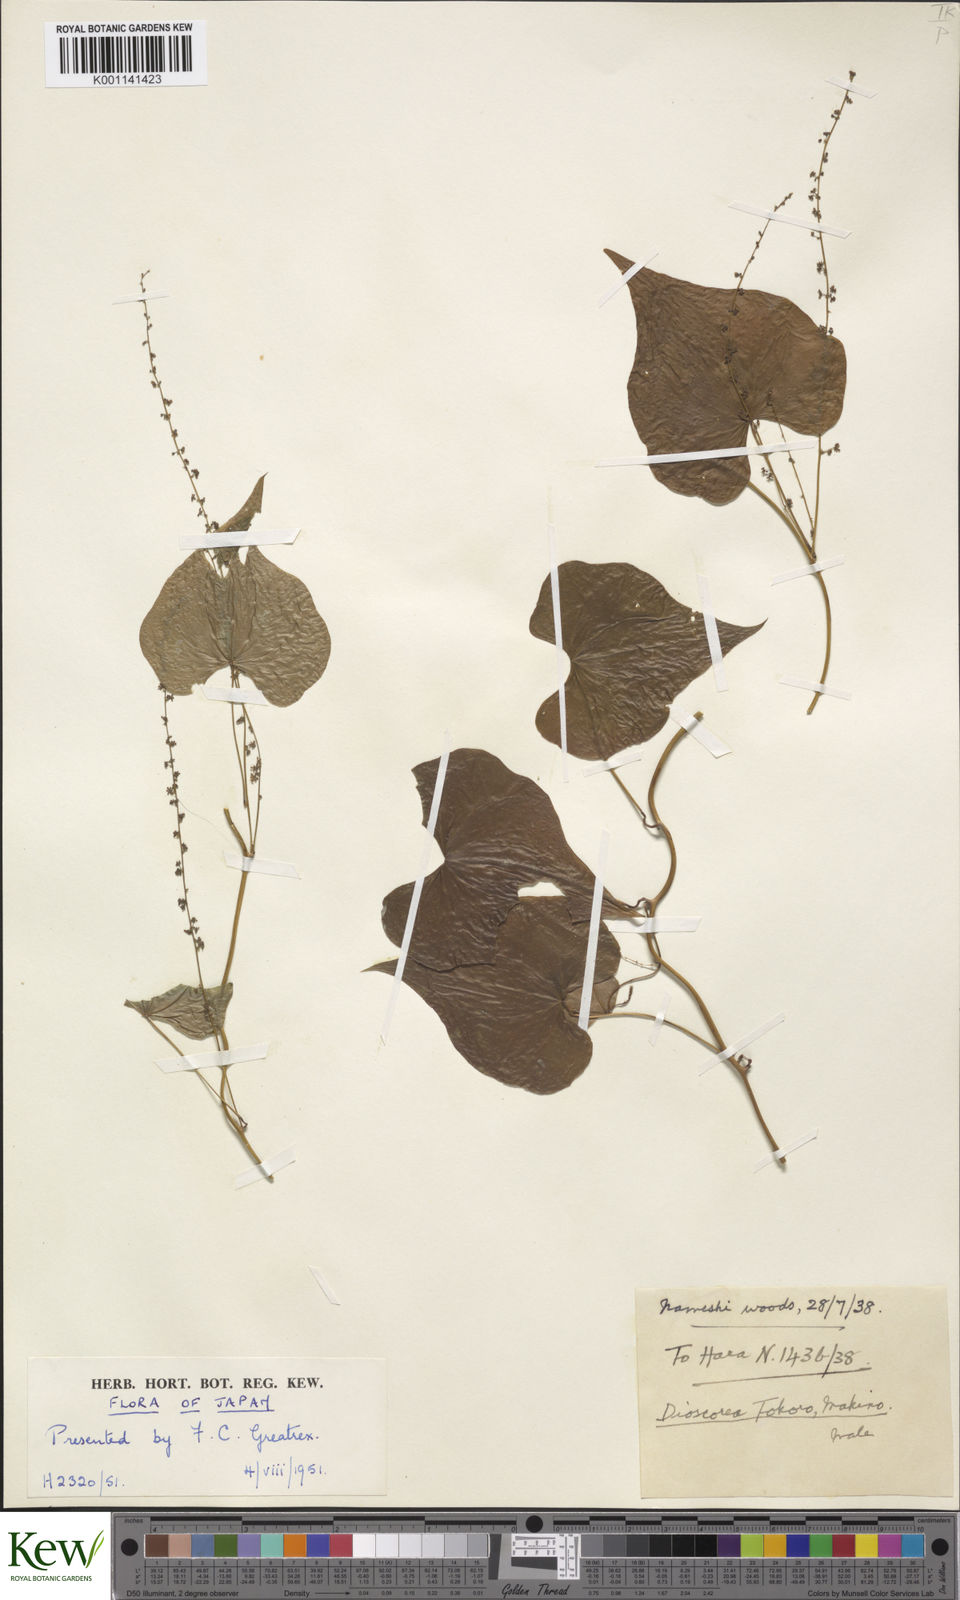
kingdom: Plantae
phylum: Tracheophyta
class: Liliopsida
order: Dioscoreales
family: Dioscoreaceae
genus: Dioscorea
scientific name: Dioscorea tokoro
